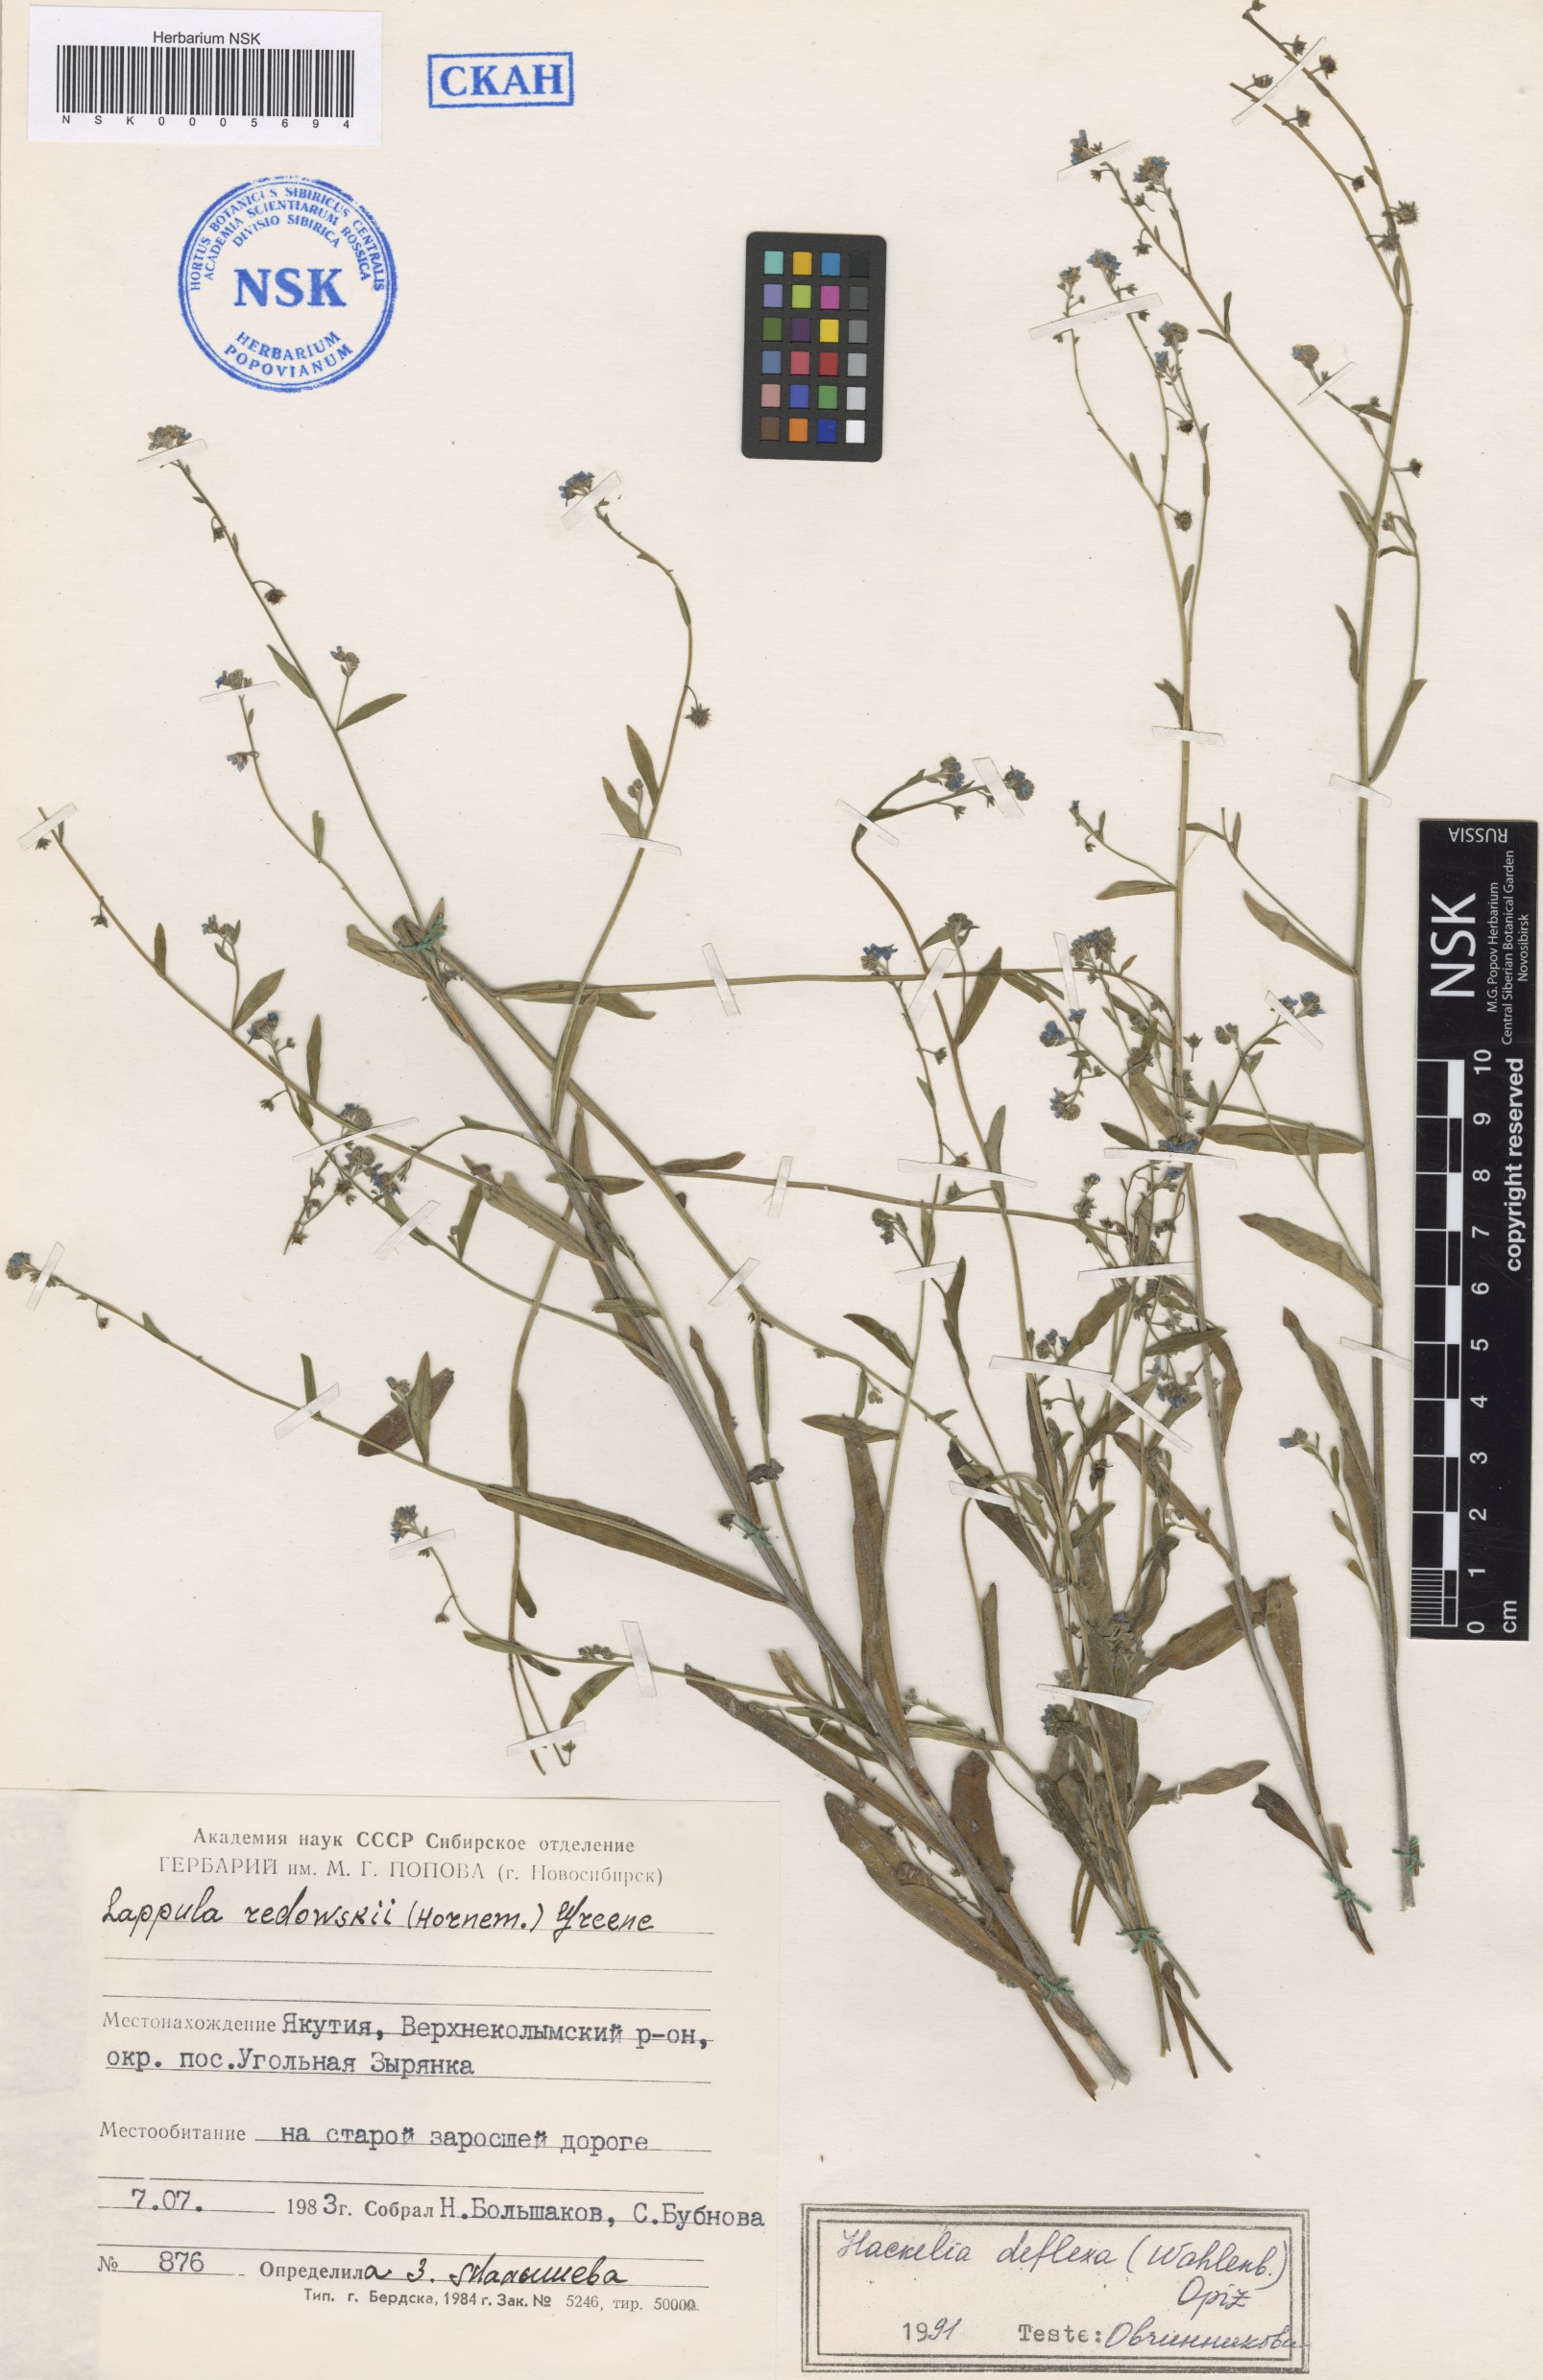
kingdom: Plantae
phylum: Tracheophyta
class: Magnoliopsida
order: Boraginales
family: Boraginaceae
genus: Hackelia
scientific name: Hackelia deflexa
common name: Nodding stickseed
